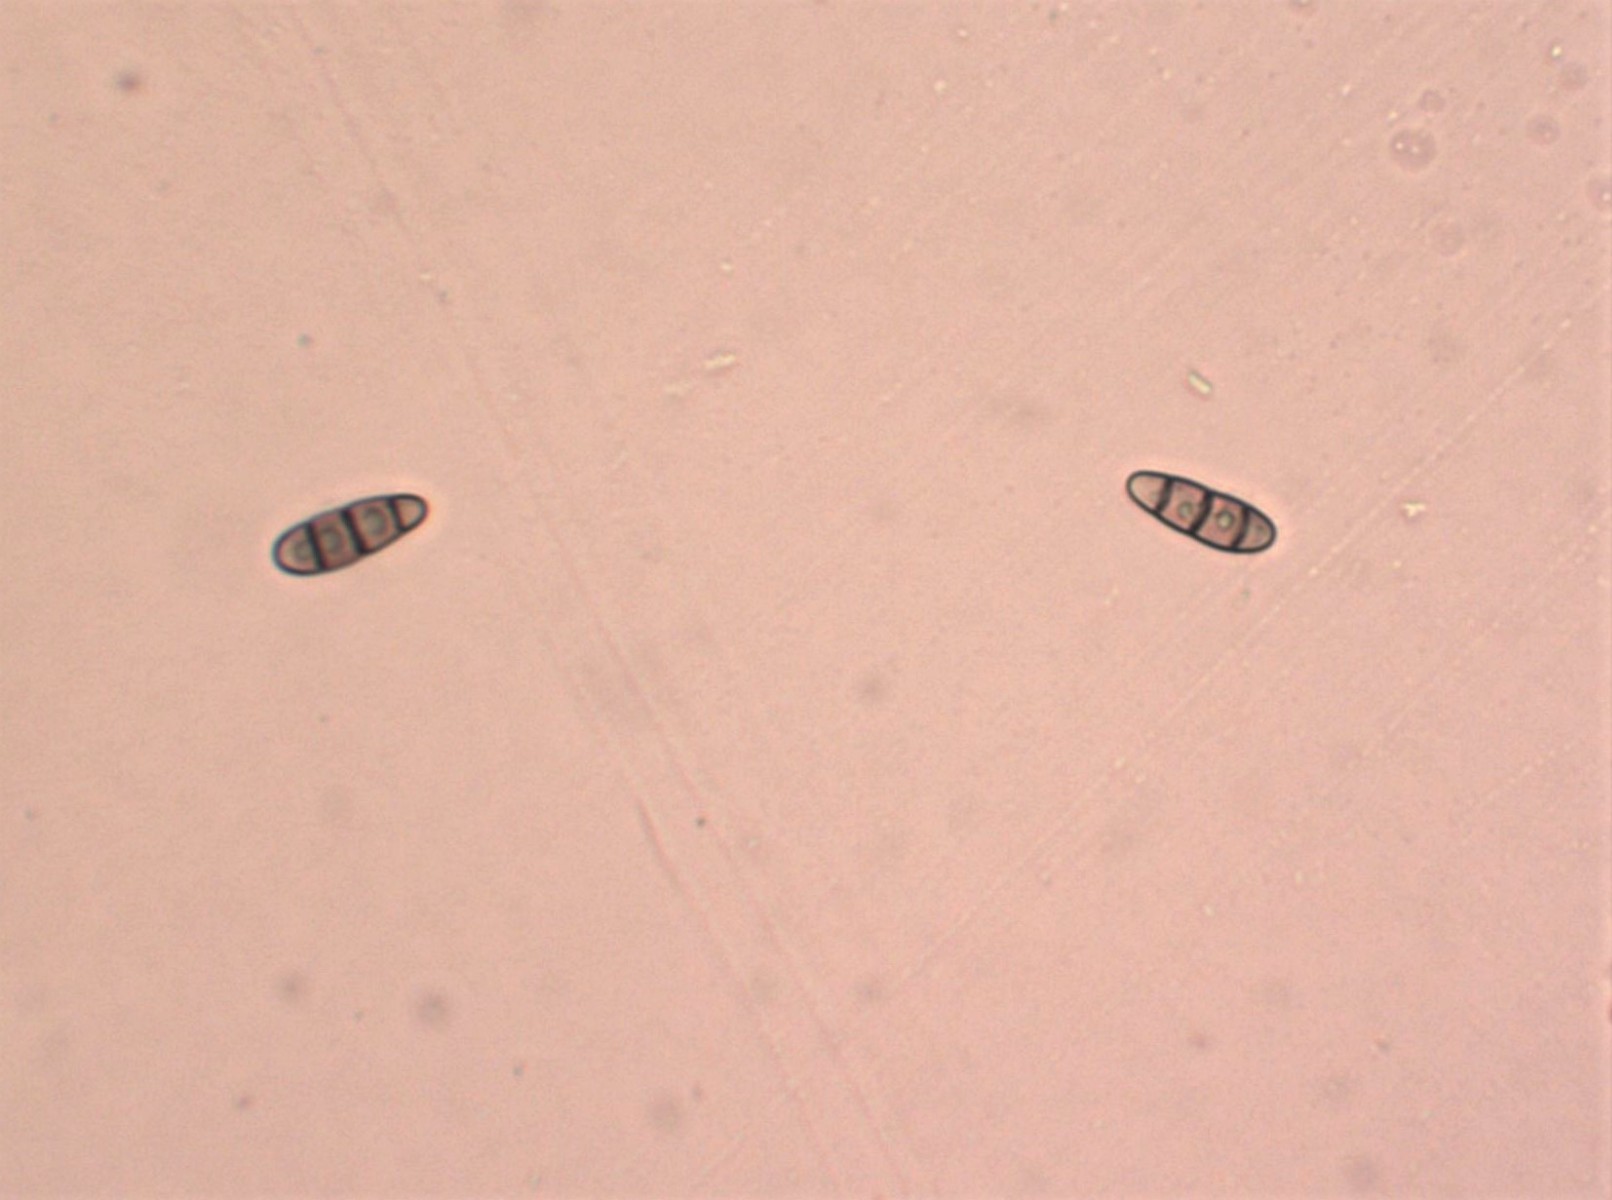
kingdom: Fungi
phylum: Ascomycota
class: Dothideomycetes
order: Hysteriales
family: Hysteriaceae
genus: Hysterium
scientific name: Hysterium acuminatum
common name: almindelig kulmund
